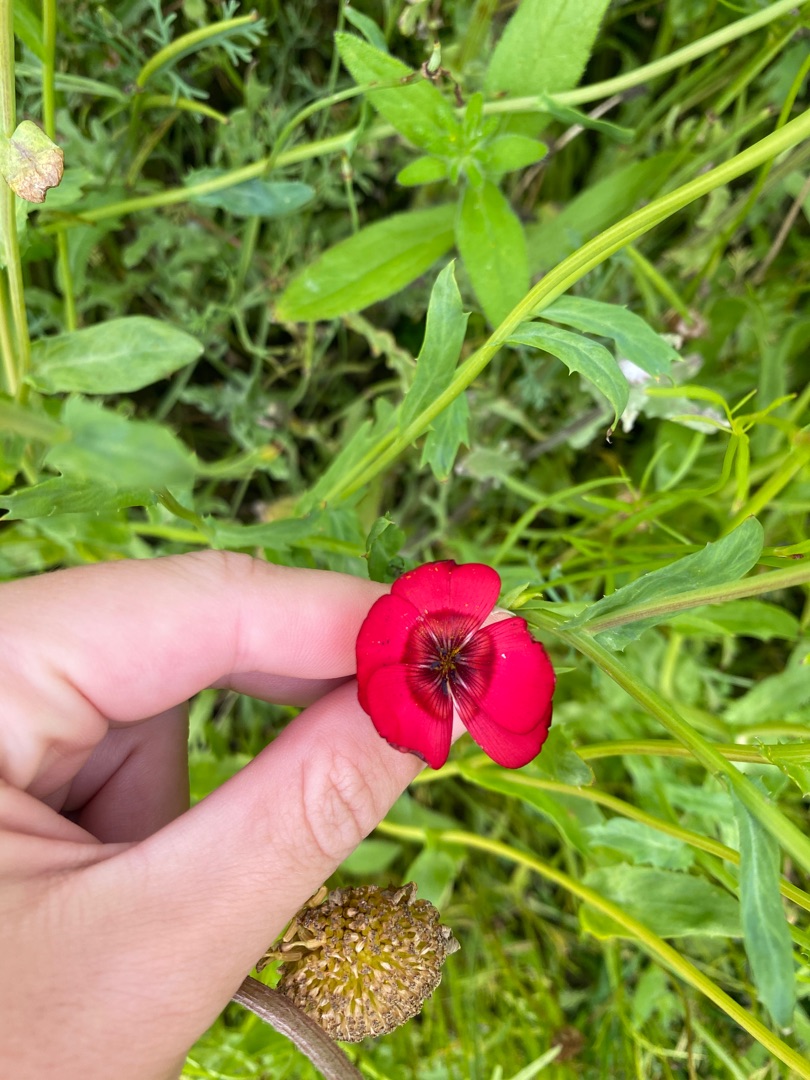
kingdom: Plantae
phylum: Tracheophyta
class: Magnoliopsida
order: Malpighiales
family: Linaceae
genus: Linum
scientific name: Linum grandiflorum
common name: Rød hør
